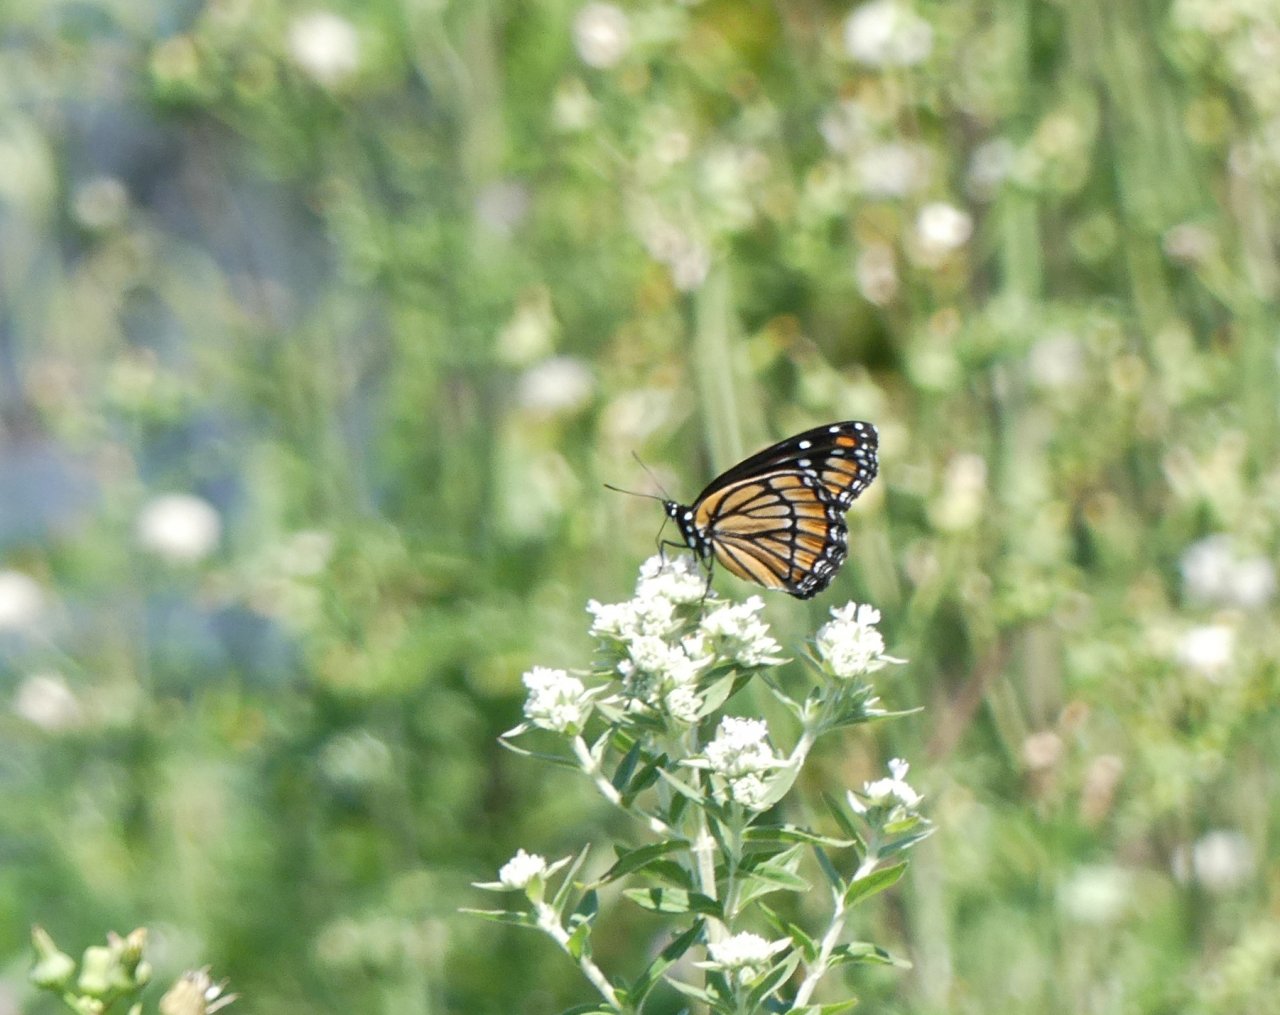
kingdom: Animalia
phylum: Arthropoda
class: Insecta
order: Lepidoptera
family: Nymphalidae
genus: Limenitis
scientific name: Limenitis archippus
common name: Viceroy
